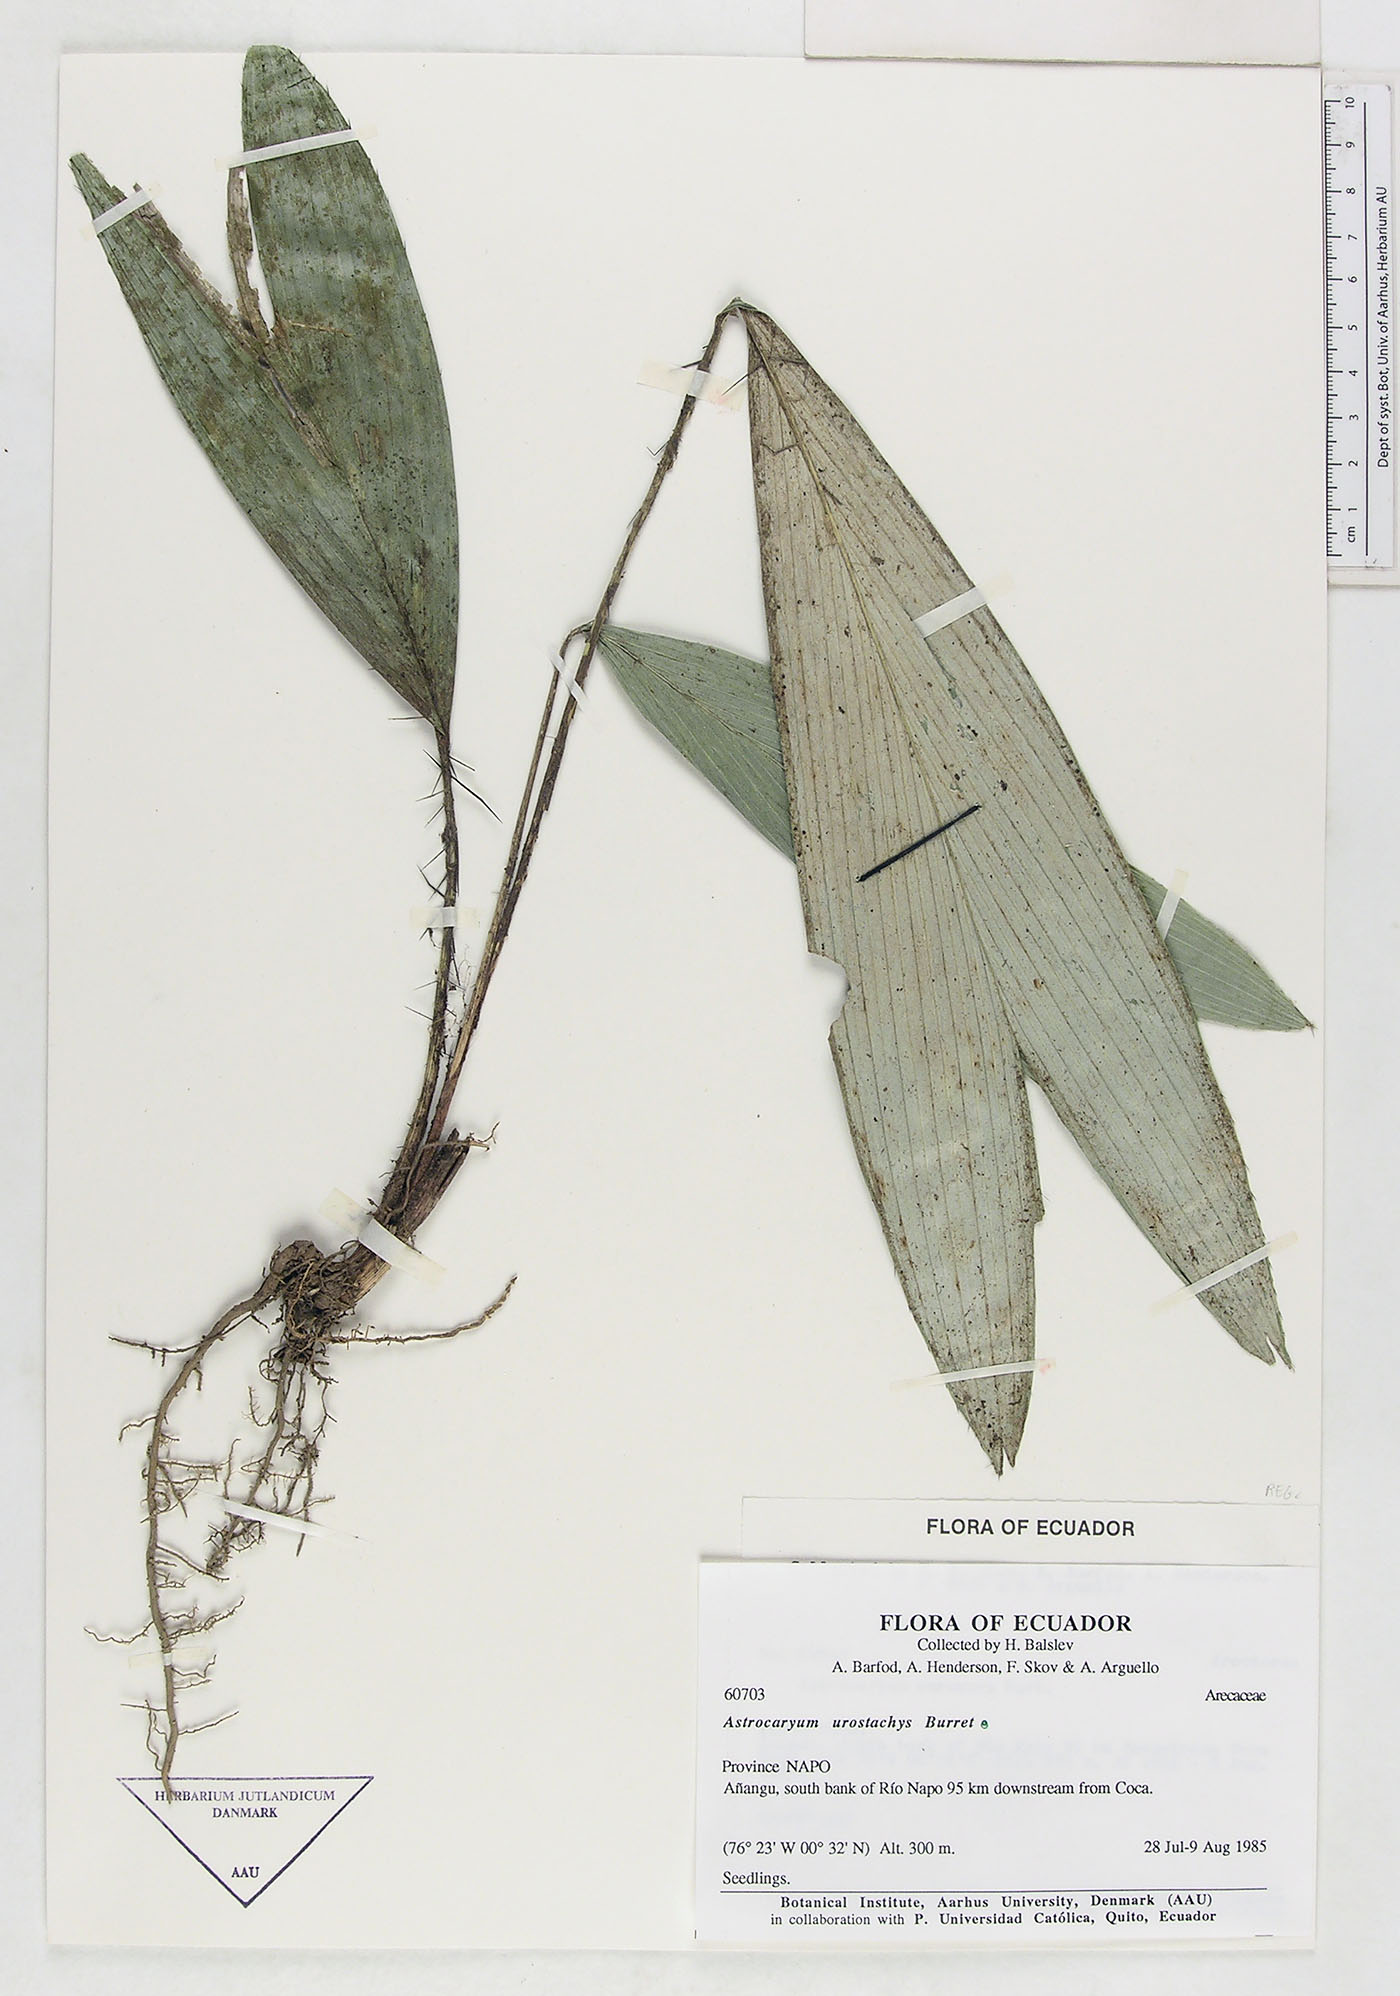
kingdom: Plantae
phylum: Tracheophyta
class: Liliopsida
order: Arecales
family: Arecaceae
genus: Astrocaryum
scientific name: Astrocaryum urostachys
